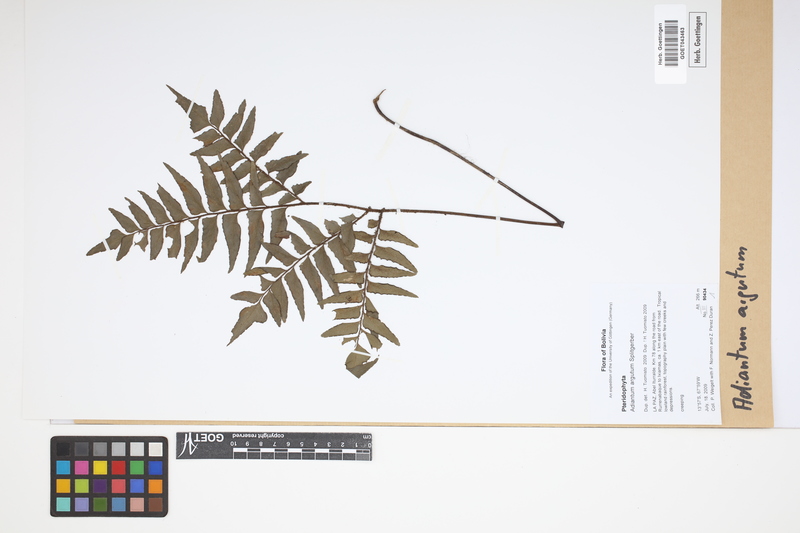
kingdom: Plantae
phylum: Tracheophyta
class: Polypodiopsida
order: Polypodiales
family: Pteridaceae
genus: Adiantum
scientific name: Adiantum argutum
